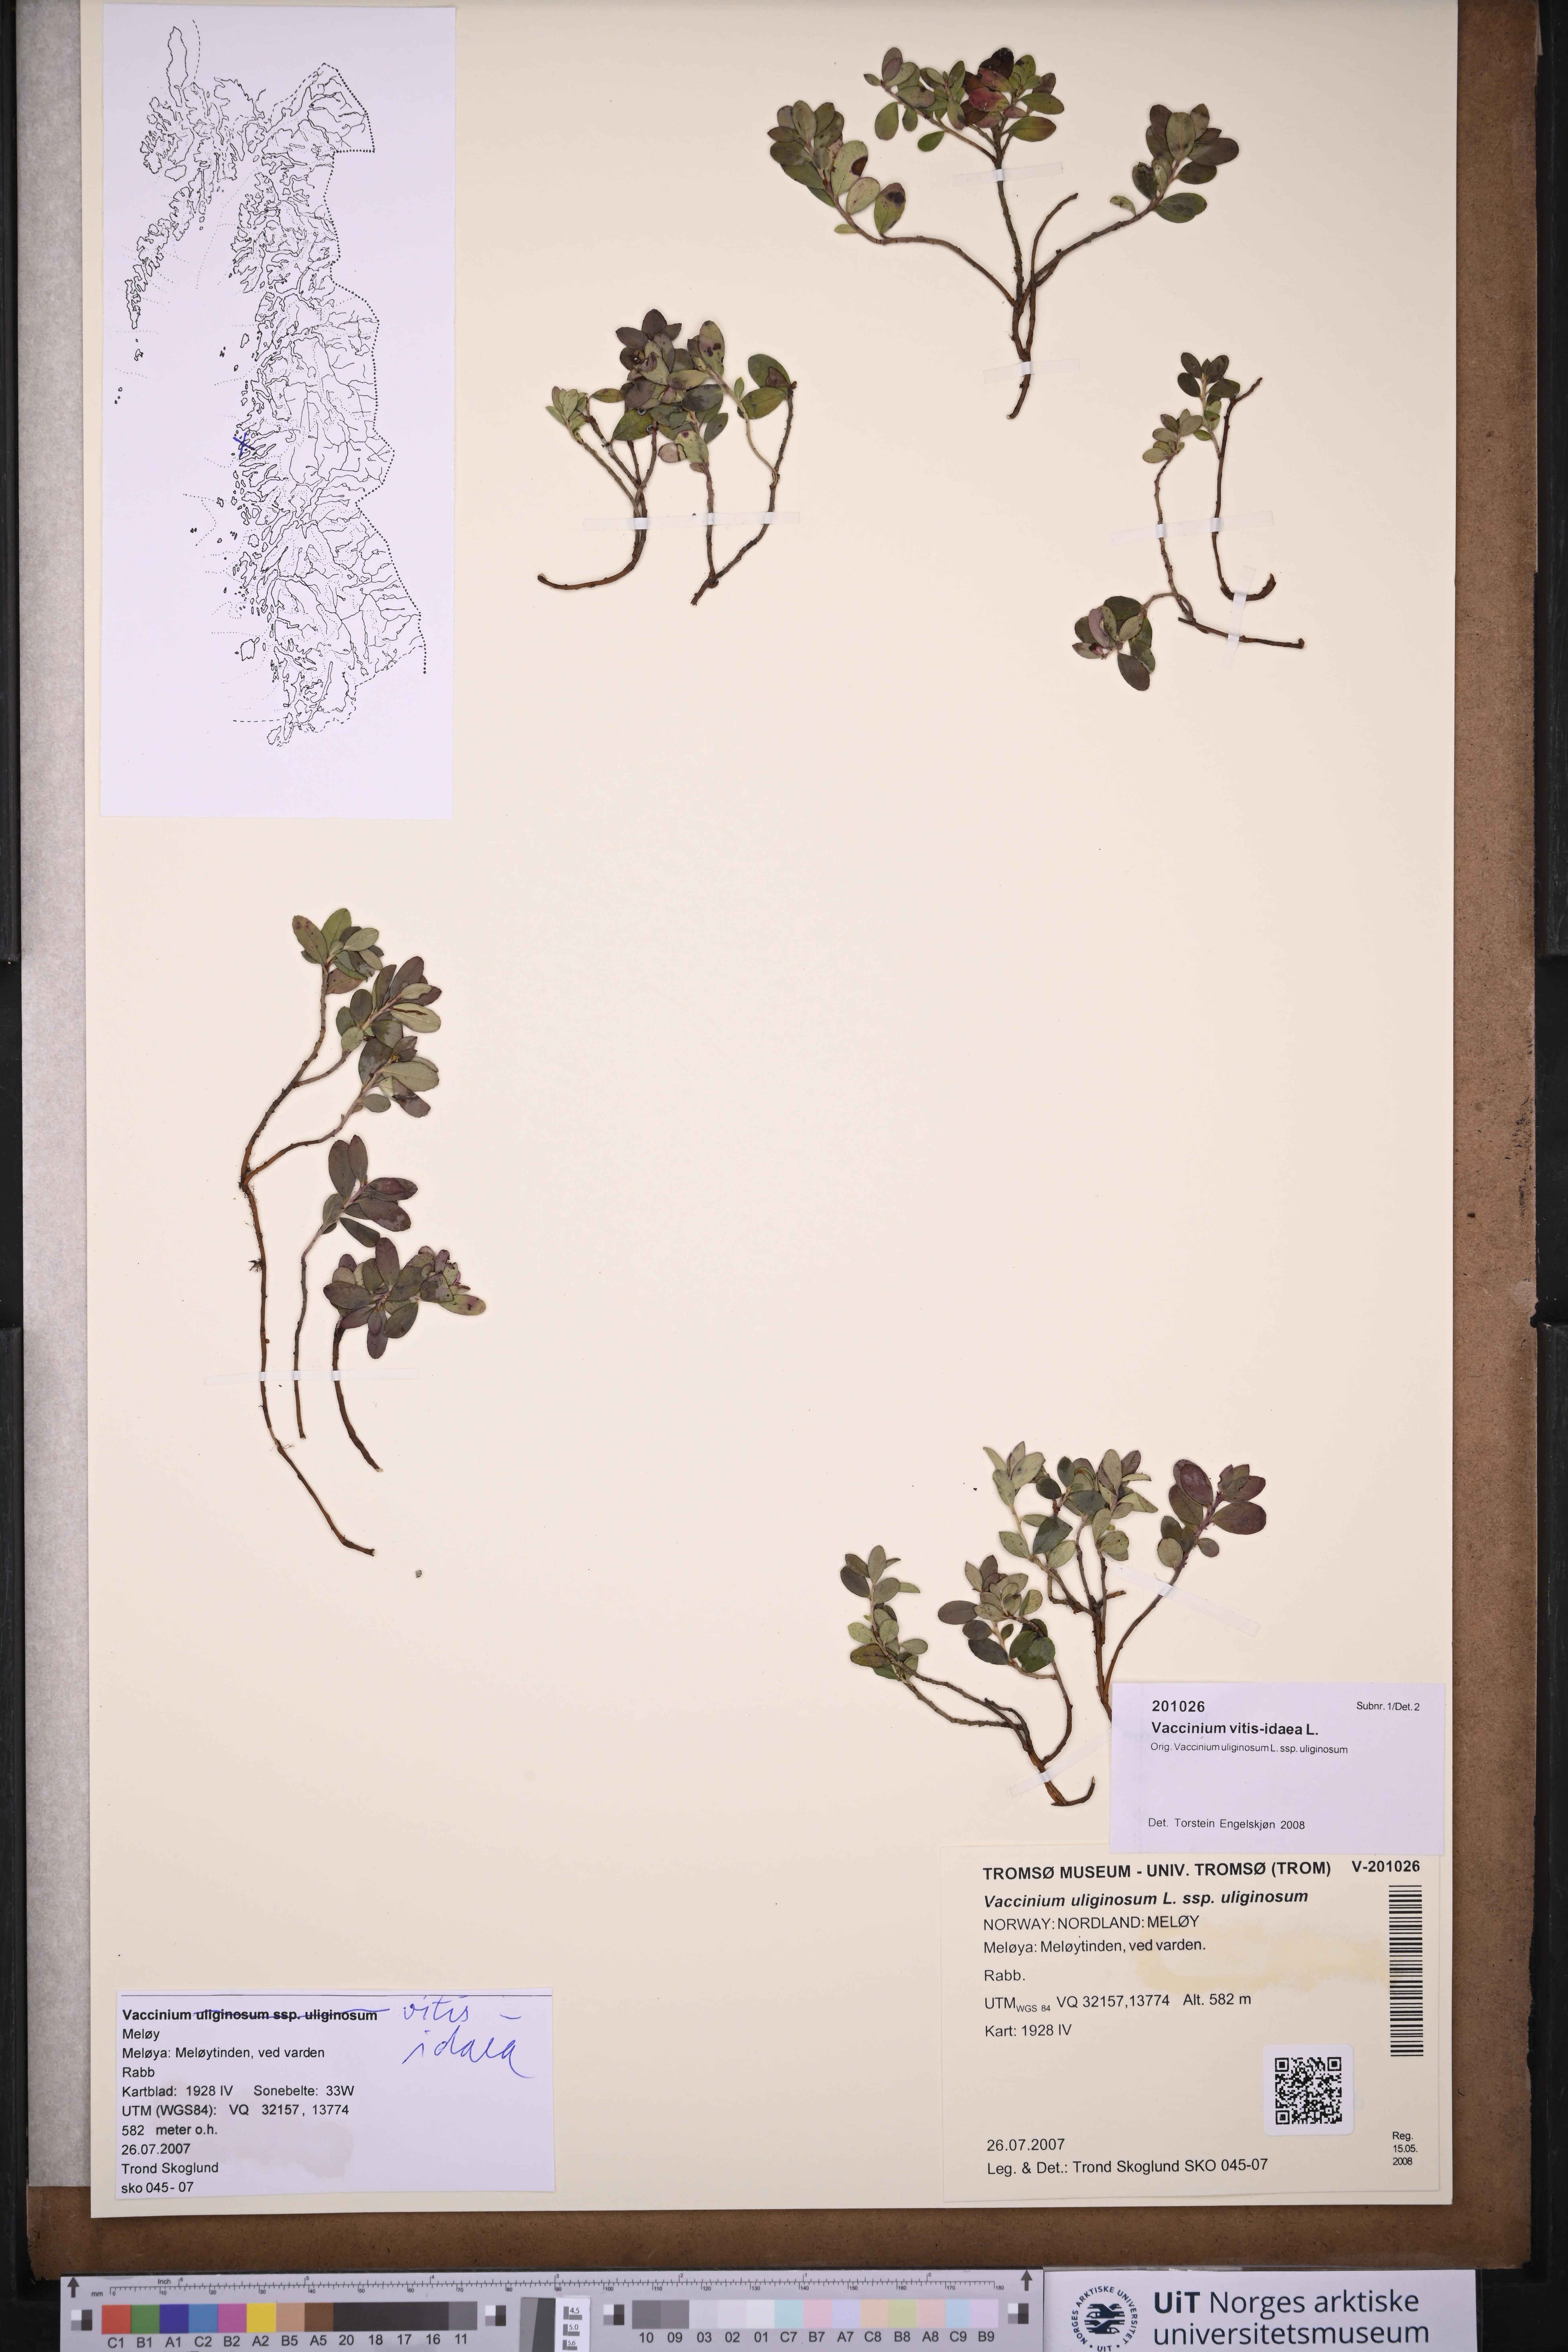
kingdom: Plantae
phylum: Tracheophyta
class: Magnoliopsida
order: Ericales
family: Ericaceae
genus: Vaccinium
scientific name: Vaccinium vitis-idaea
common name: Cowberry
